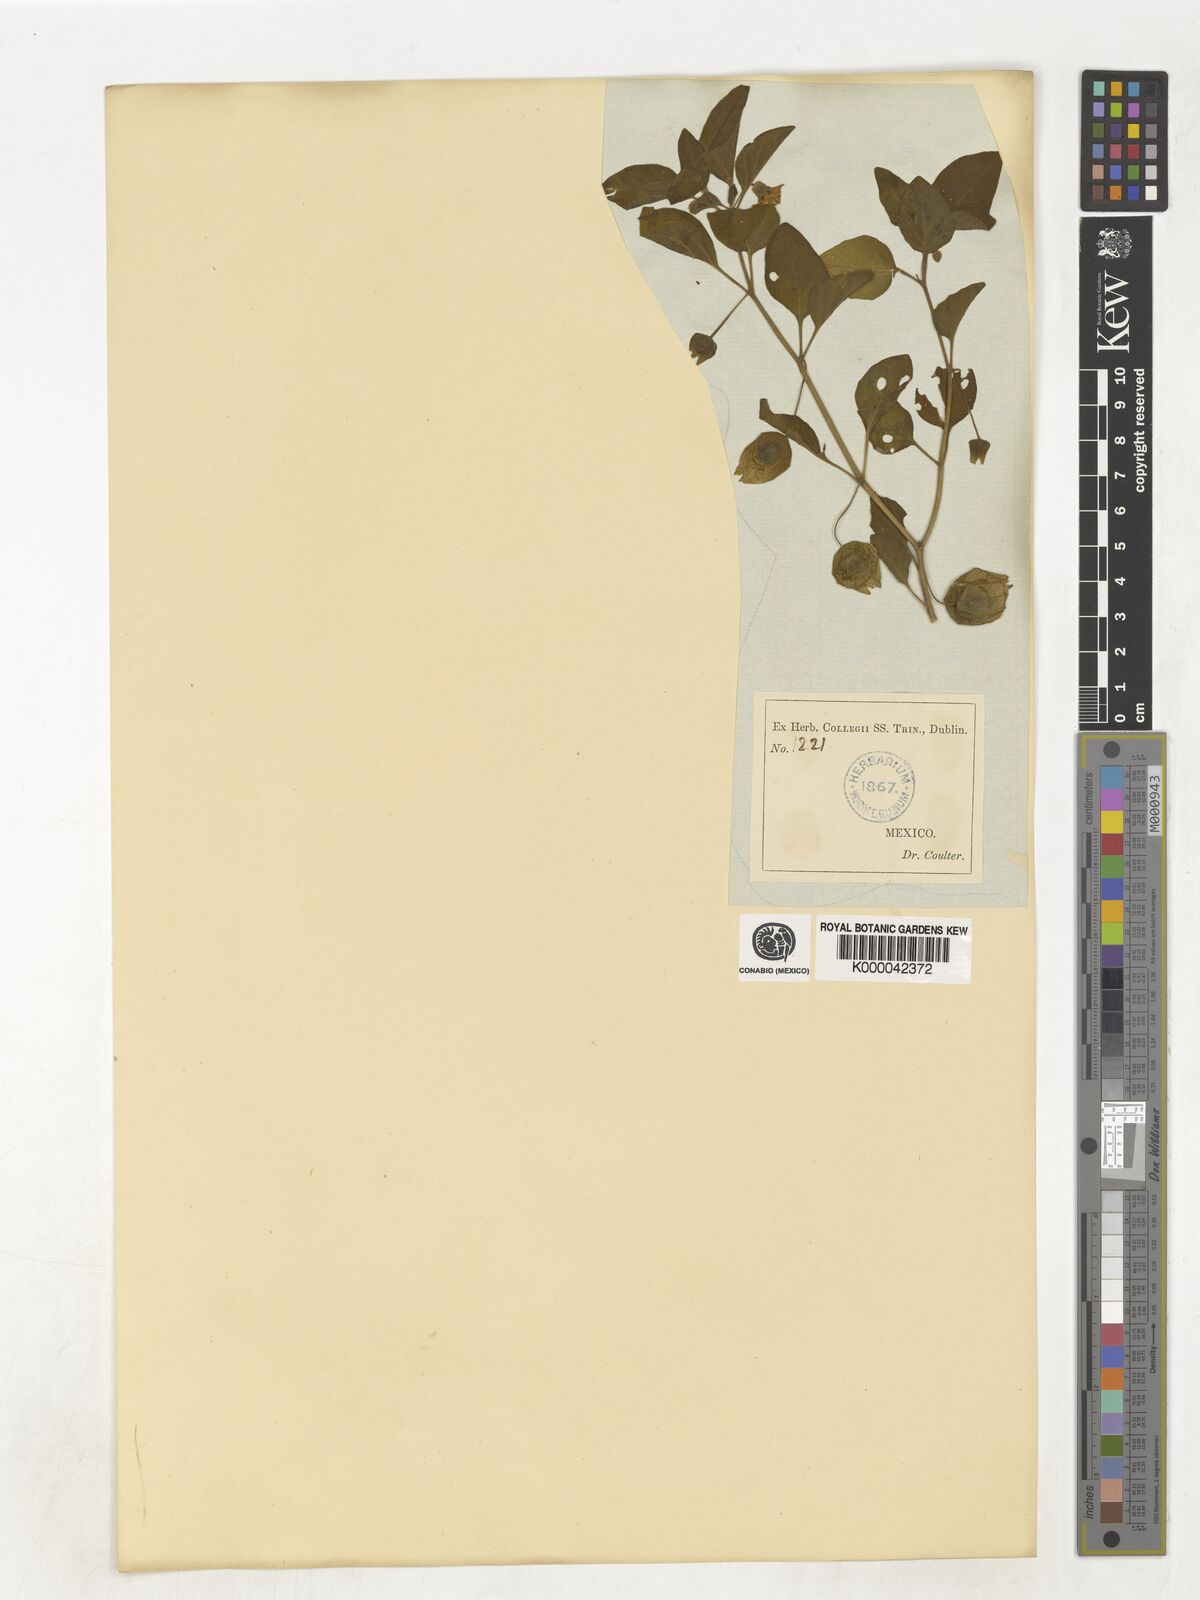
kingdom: Plantae
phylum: Tracheophyta
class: Magnoliopsida
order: Solanales
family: Solanaceae
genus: Physalis
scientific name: Physalis
